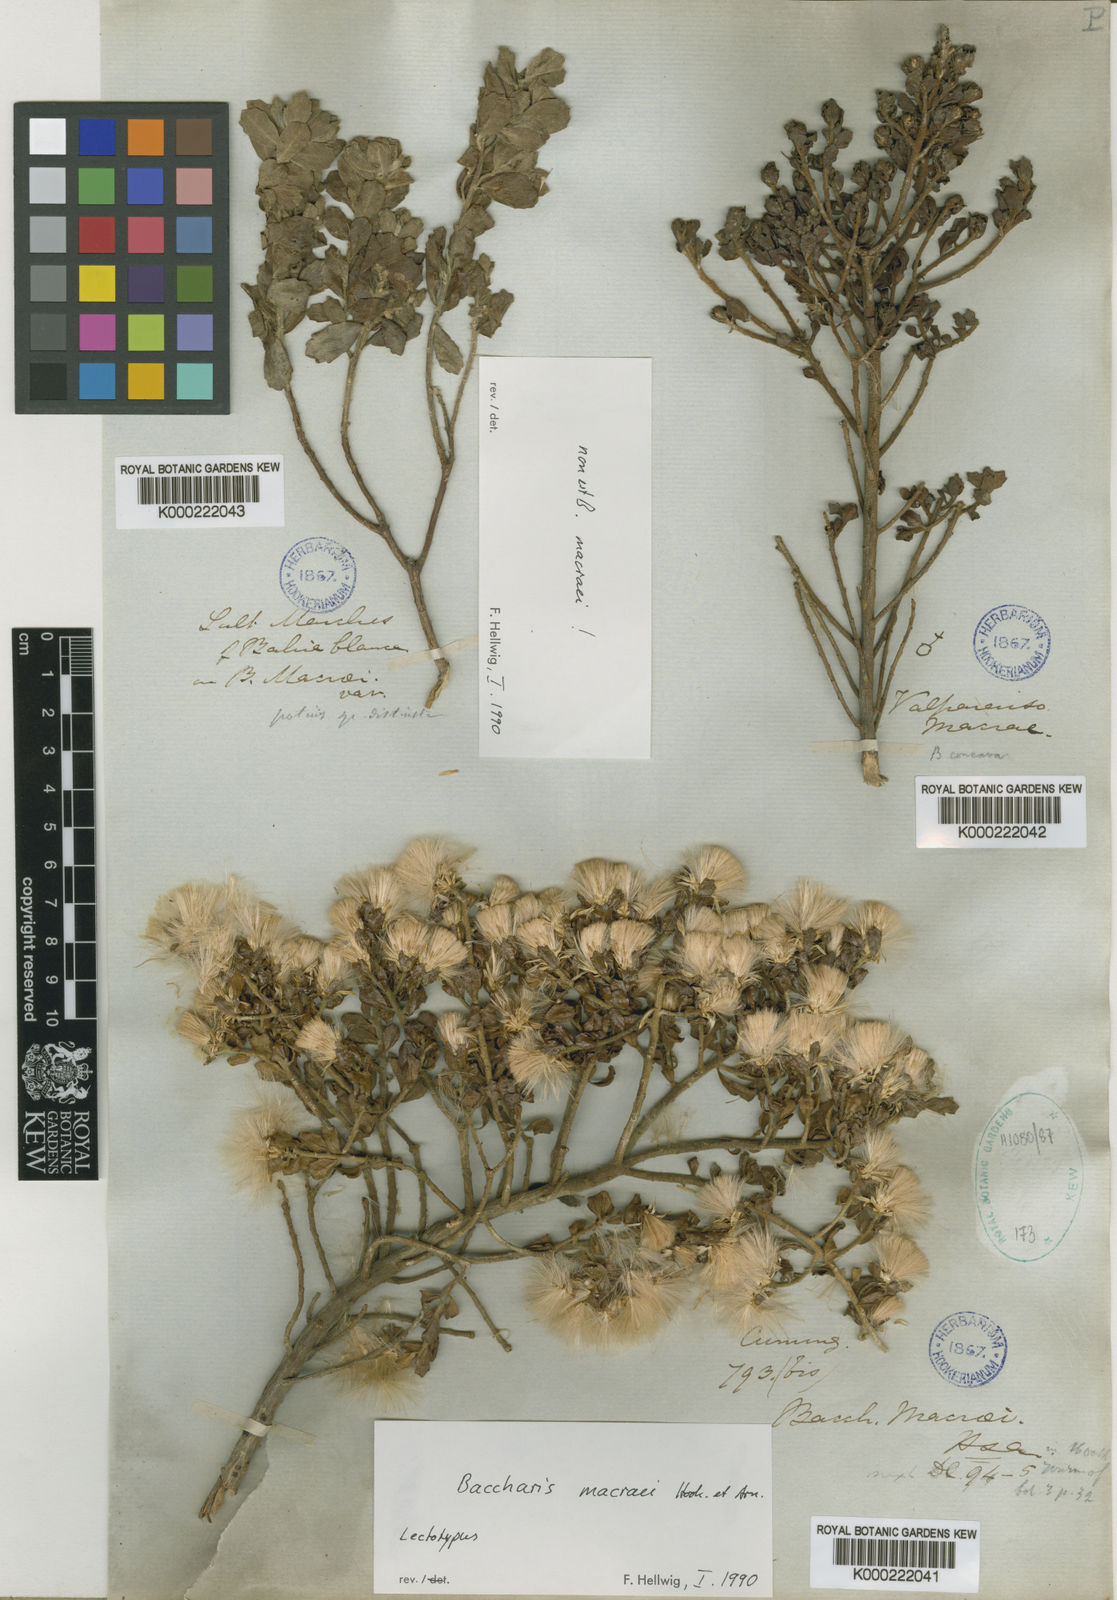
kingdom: Plantae
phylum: Tracheophyta
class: Magnoliopsida
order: Asterales
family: Asteraceae
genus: Baccharis
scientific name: Baccharis macraei
